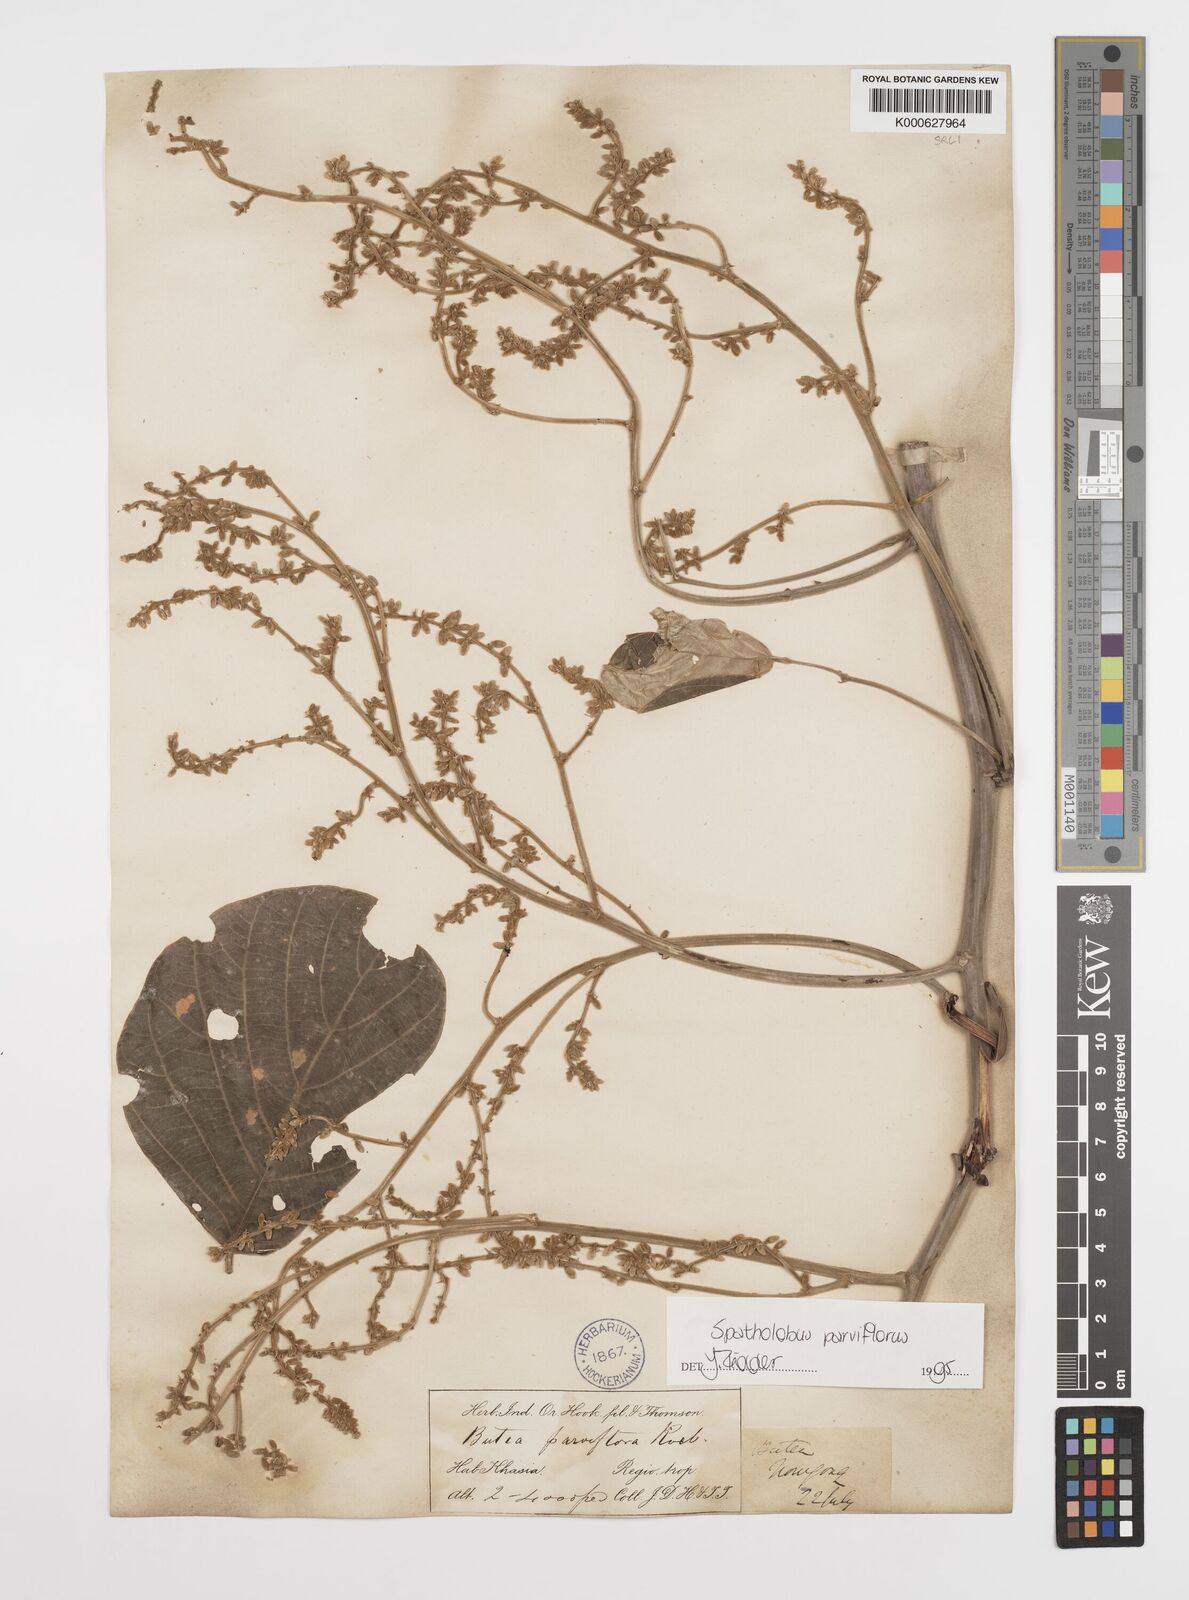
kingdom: Plantae
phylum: Tracheophyta
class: Magnoliopsida
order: Fabales
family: Fabaceae
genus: Spatholobus
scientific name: Spatholobus parviflorus
